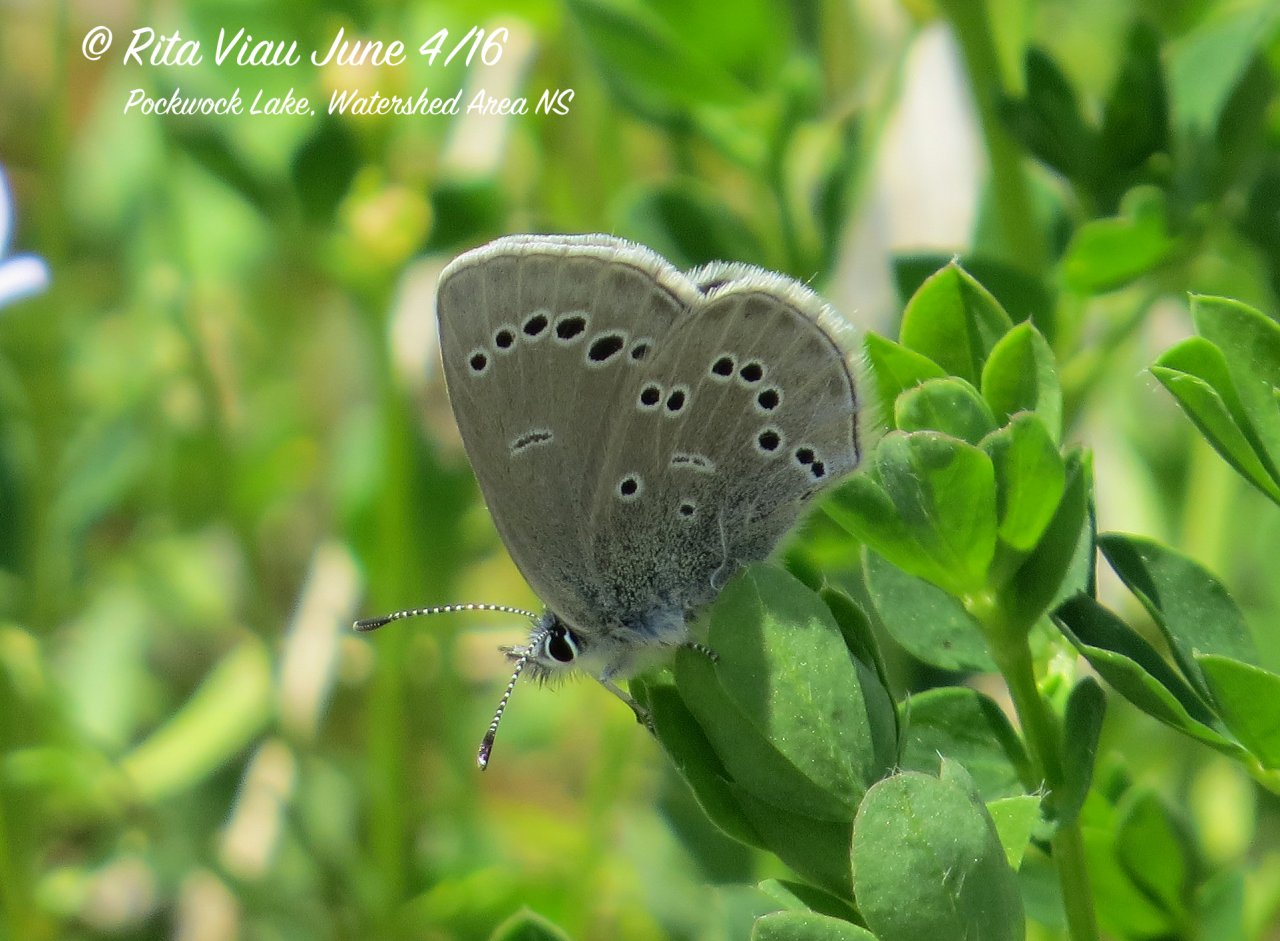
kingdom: Animalia
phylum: Arthropoda
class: Insecta
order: Lepidoptera
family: Lycaenidae
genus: Glaucopsyche
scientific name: Glaucopsyche lygdamus
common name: Silvery Blue
